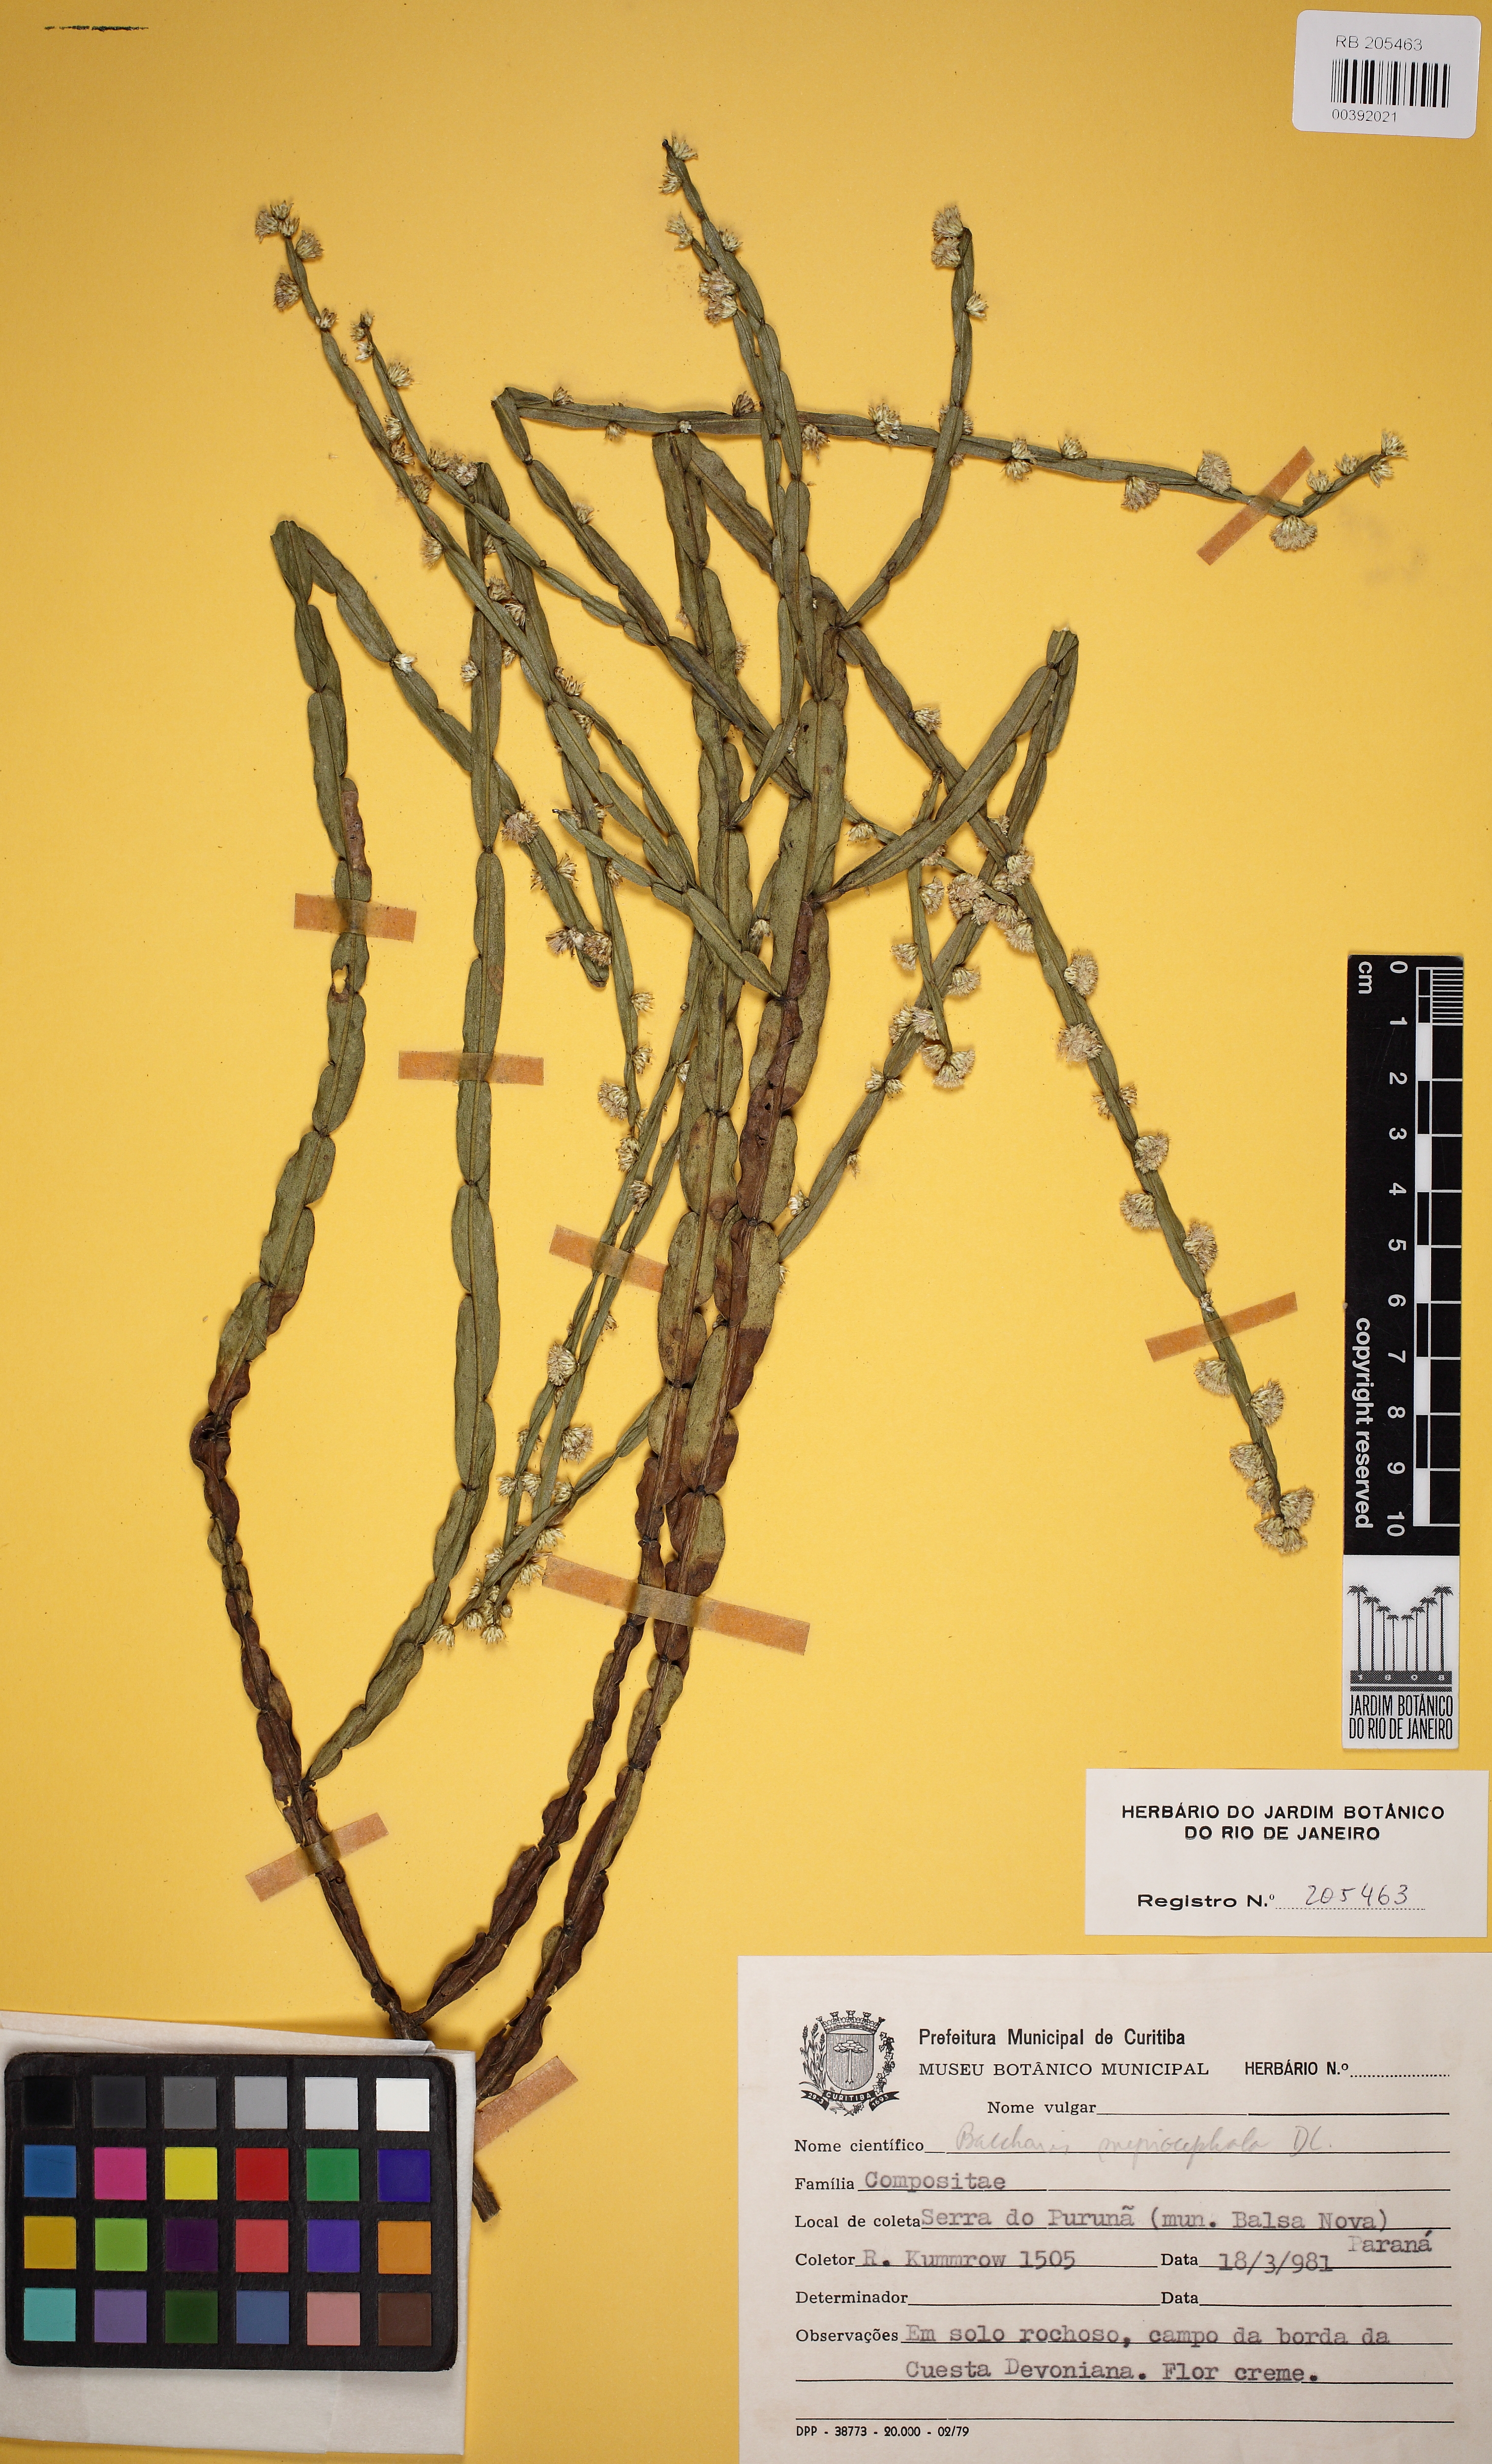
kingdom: Plantae
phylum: Tracheophyta
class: Magnoliopsida
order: Asterales
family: Asteraceae
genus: Baccharis
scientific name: Baccharis myriocephala
